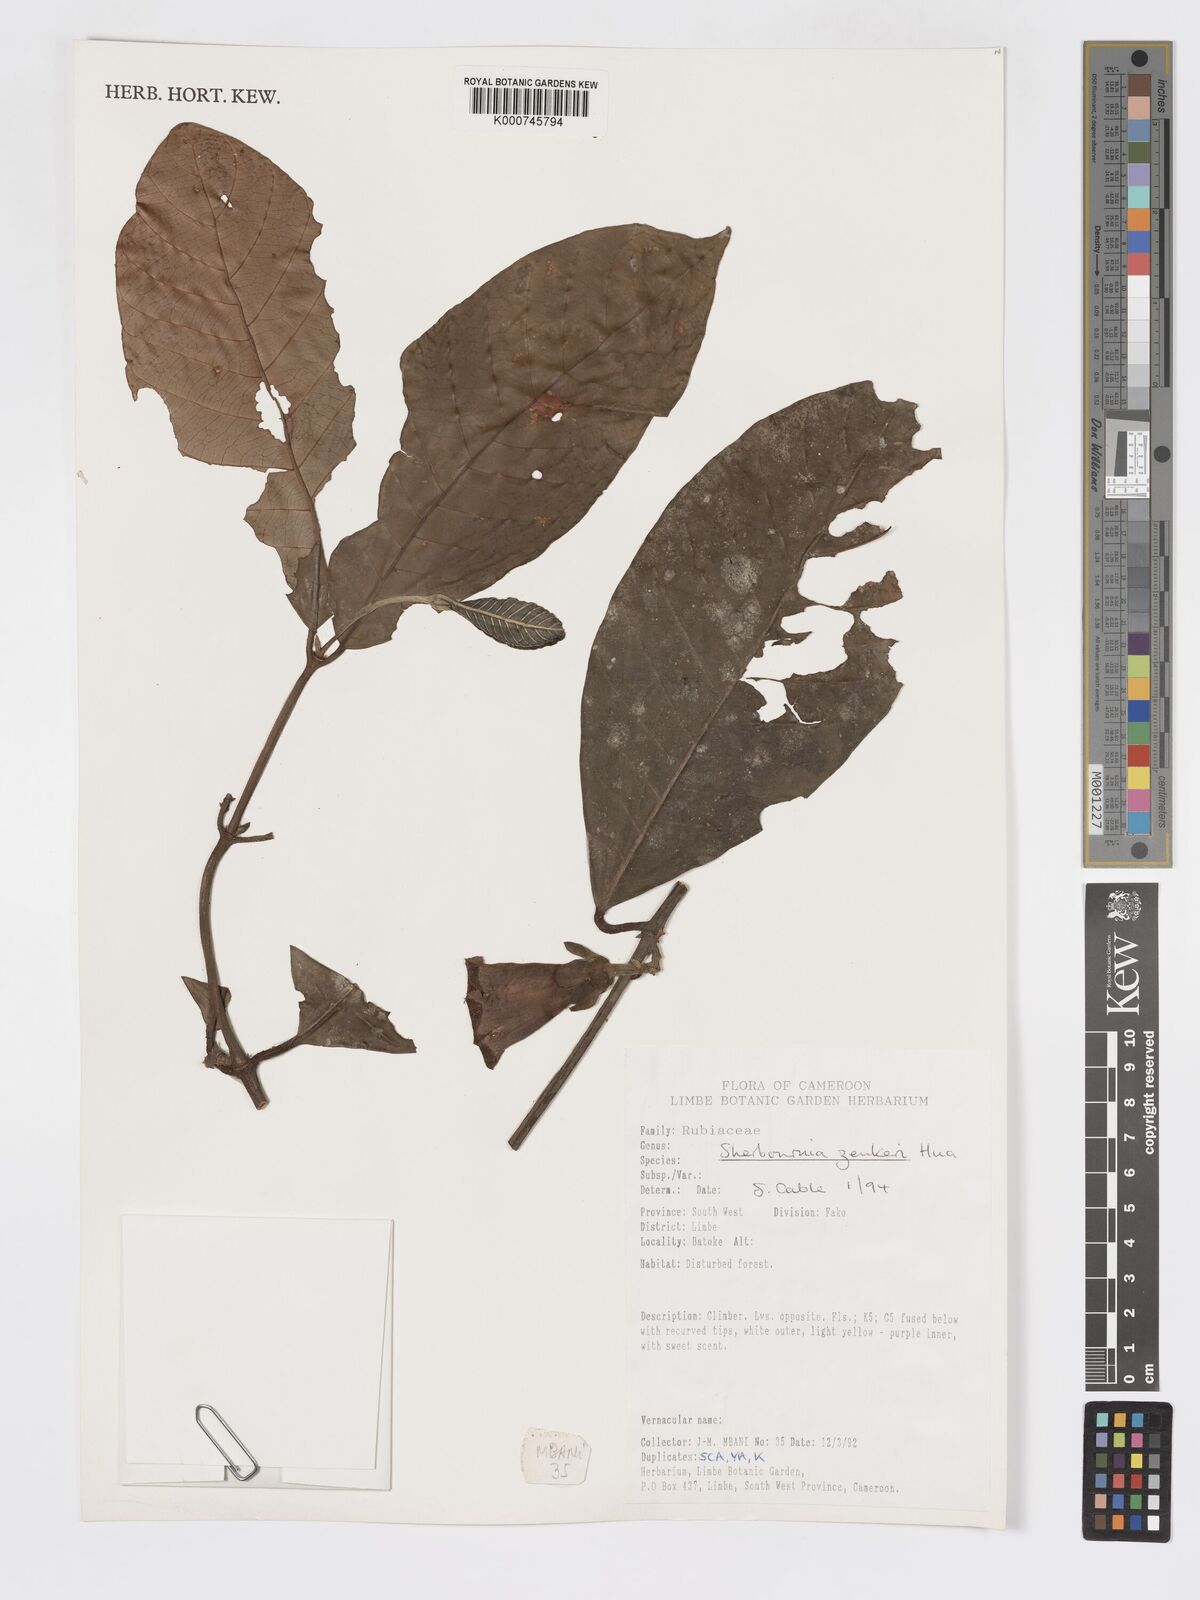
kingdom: Plantae
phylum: Tracheophyta
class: Magnoliopsida
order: Gentianales
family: Rubiaceae
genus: Sherbournia
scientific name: Sherbournia zenkeri
